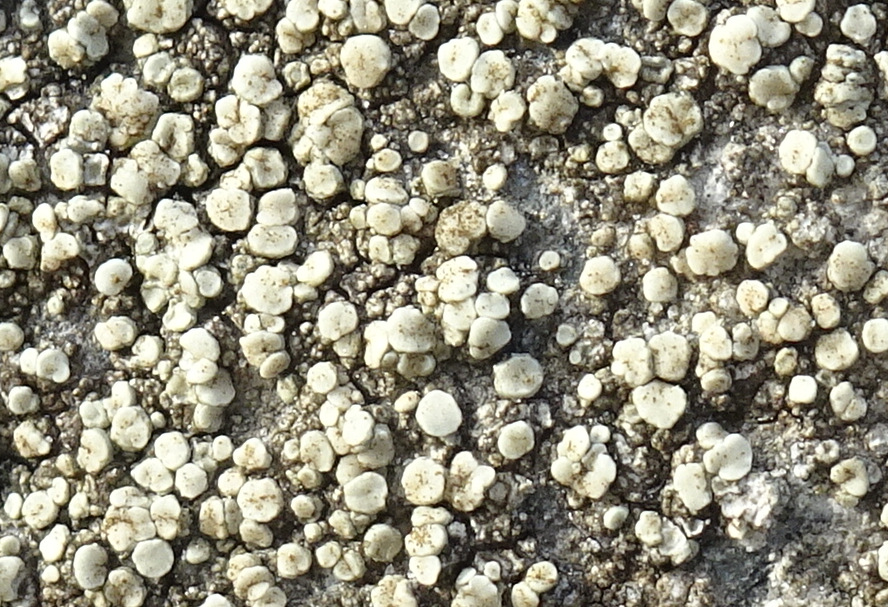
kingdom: Fungi
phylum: Ascomycota
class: Lecanoromycetes
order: Lecanorales
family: Lecanoraceae
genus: Lecanora
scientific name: Lecanora polytropa
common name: bleggrøn kantskivelav
